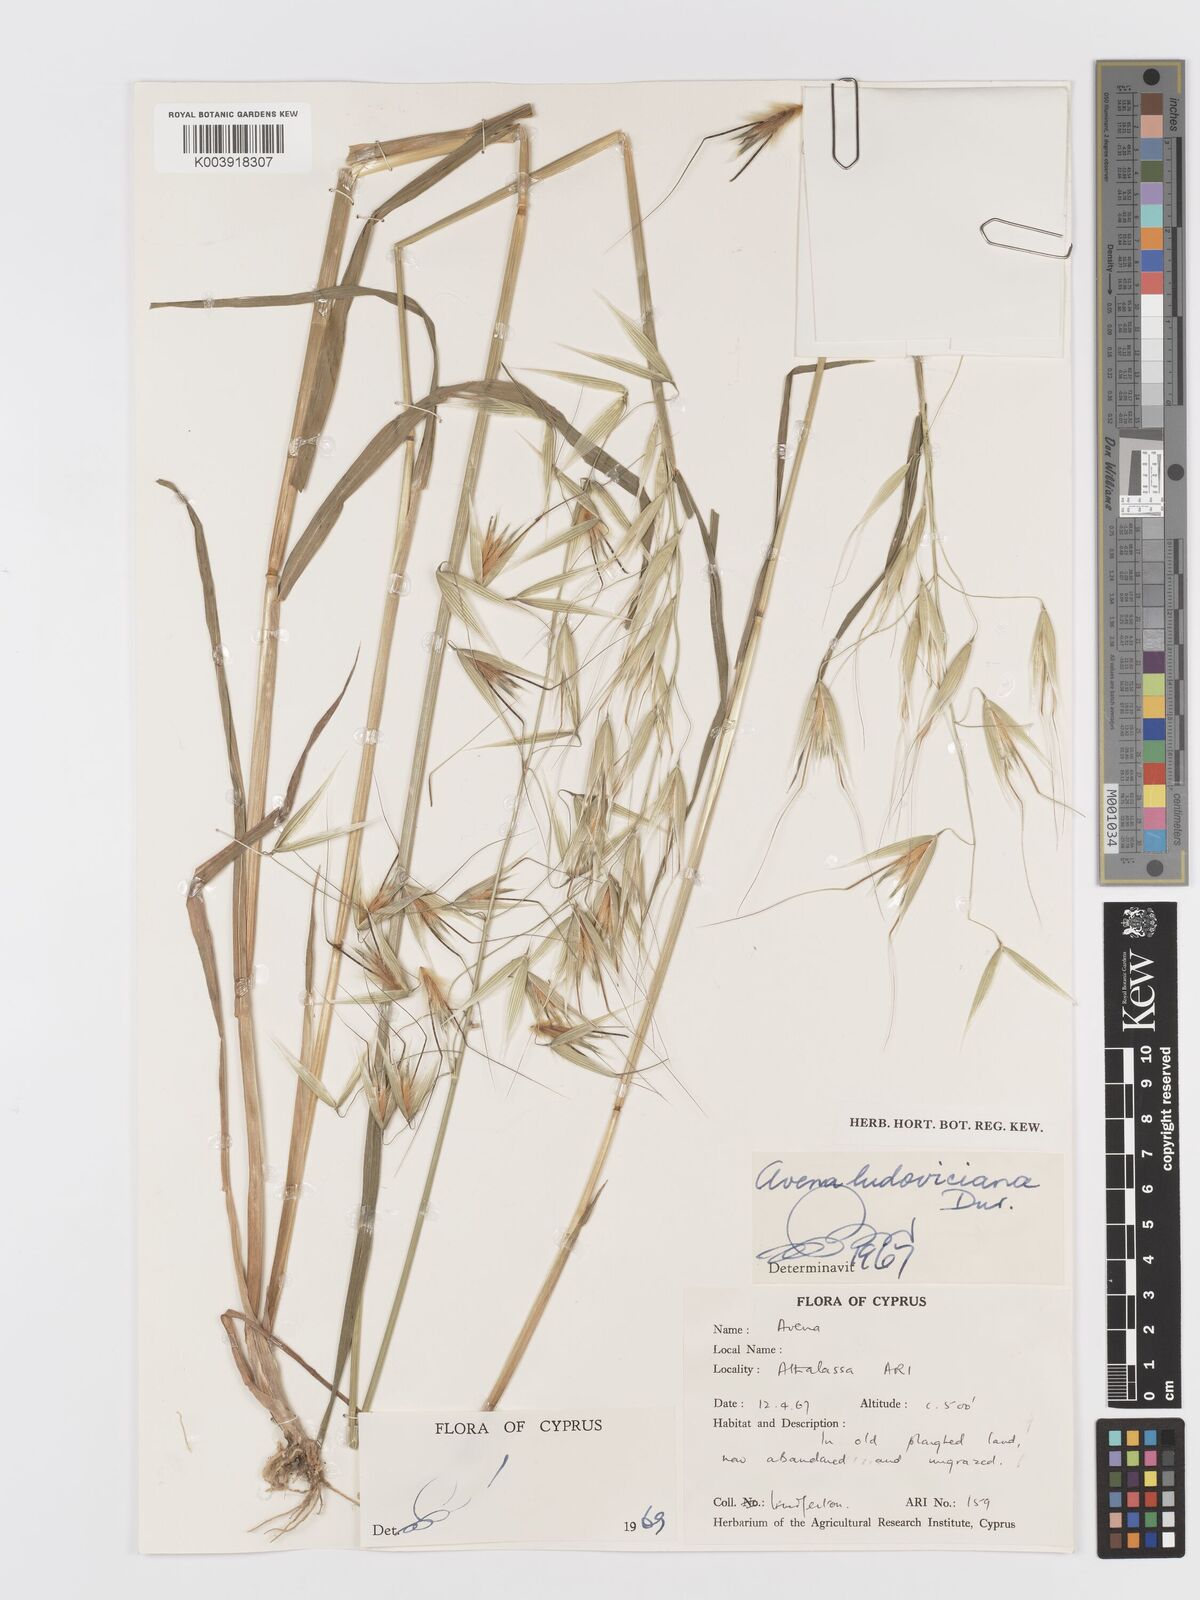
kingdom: Plantae
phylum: Tracheophyta
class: Liliopsida
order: Poales
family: Poaceae
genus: Avena
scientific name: Avena sterilis
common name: Animated oat
